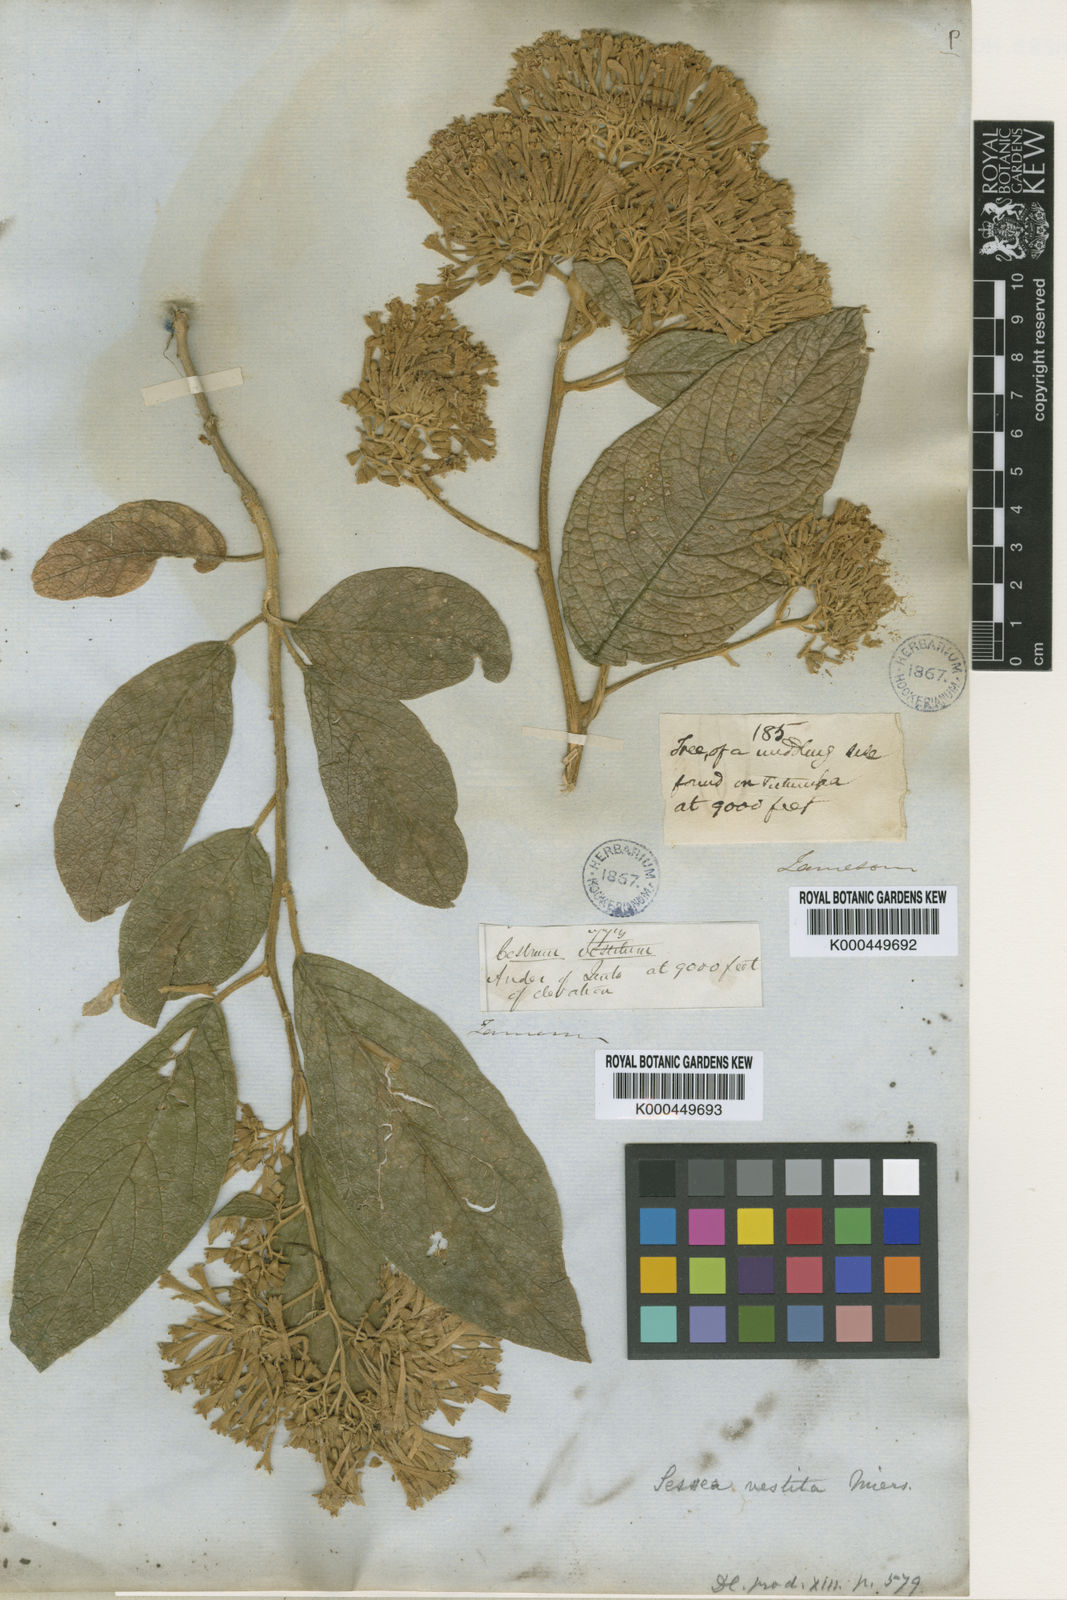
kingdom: Plantae
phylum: Tracheophyta
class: Magnoliopsida
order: Solanales
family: Solanaceae
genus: Sessea
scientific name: Sessea vestita
